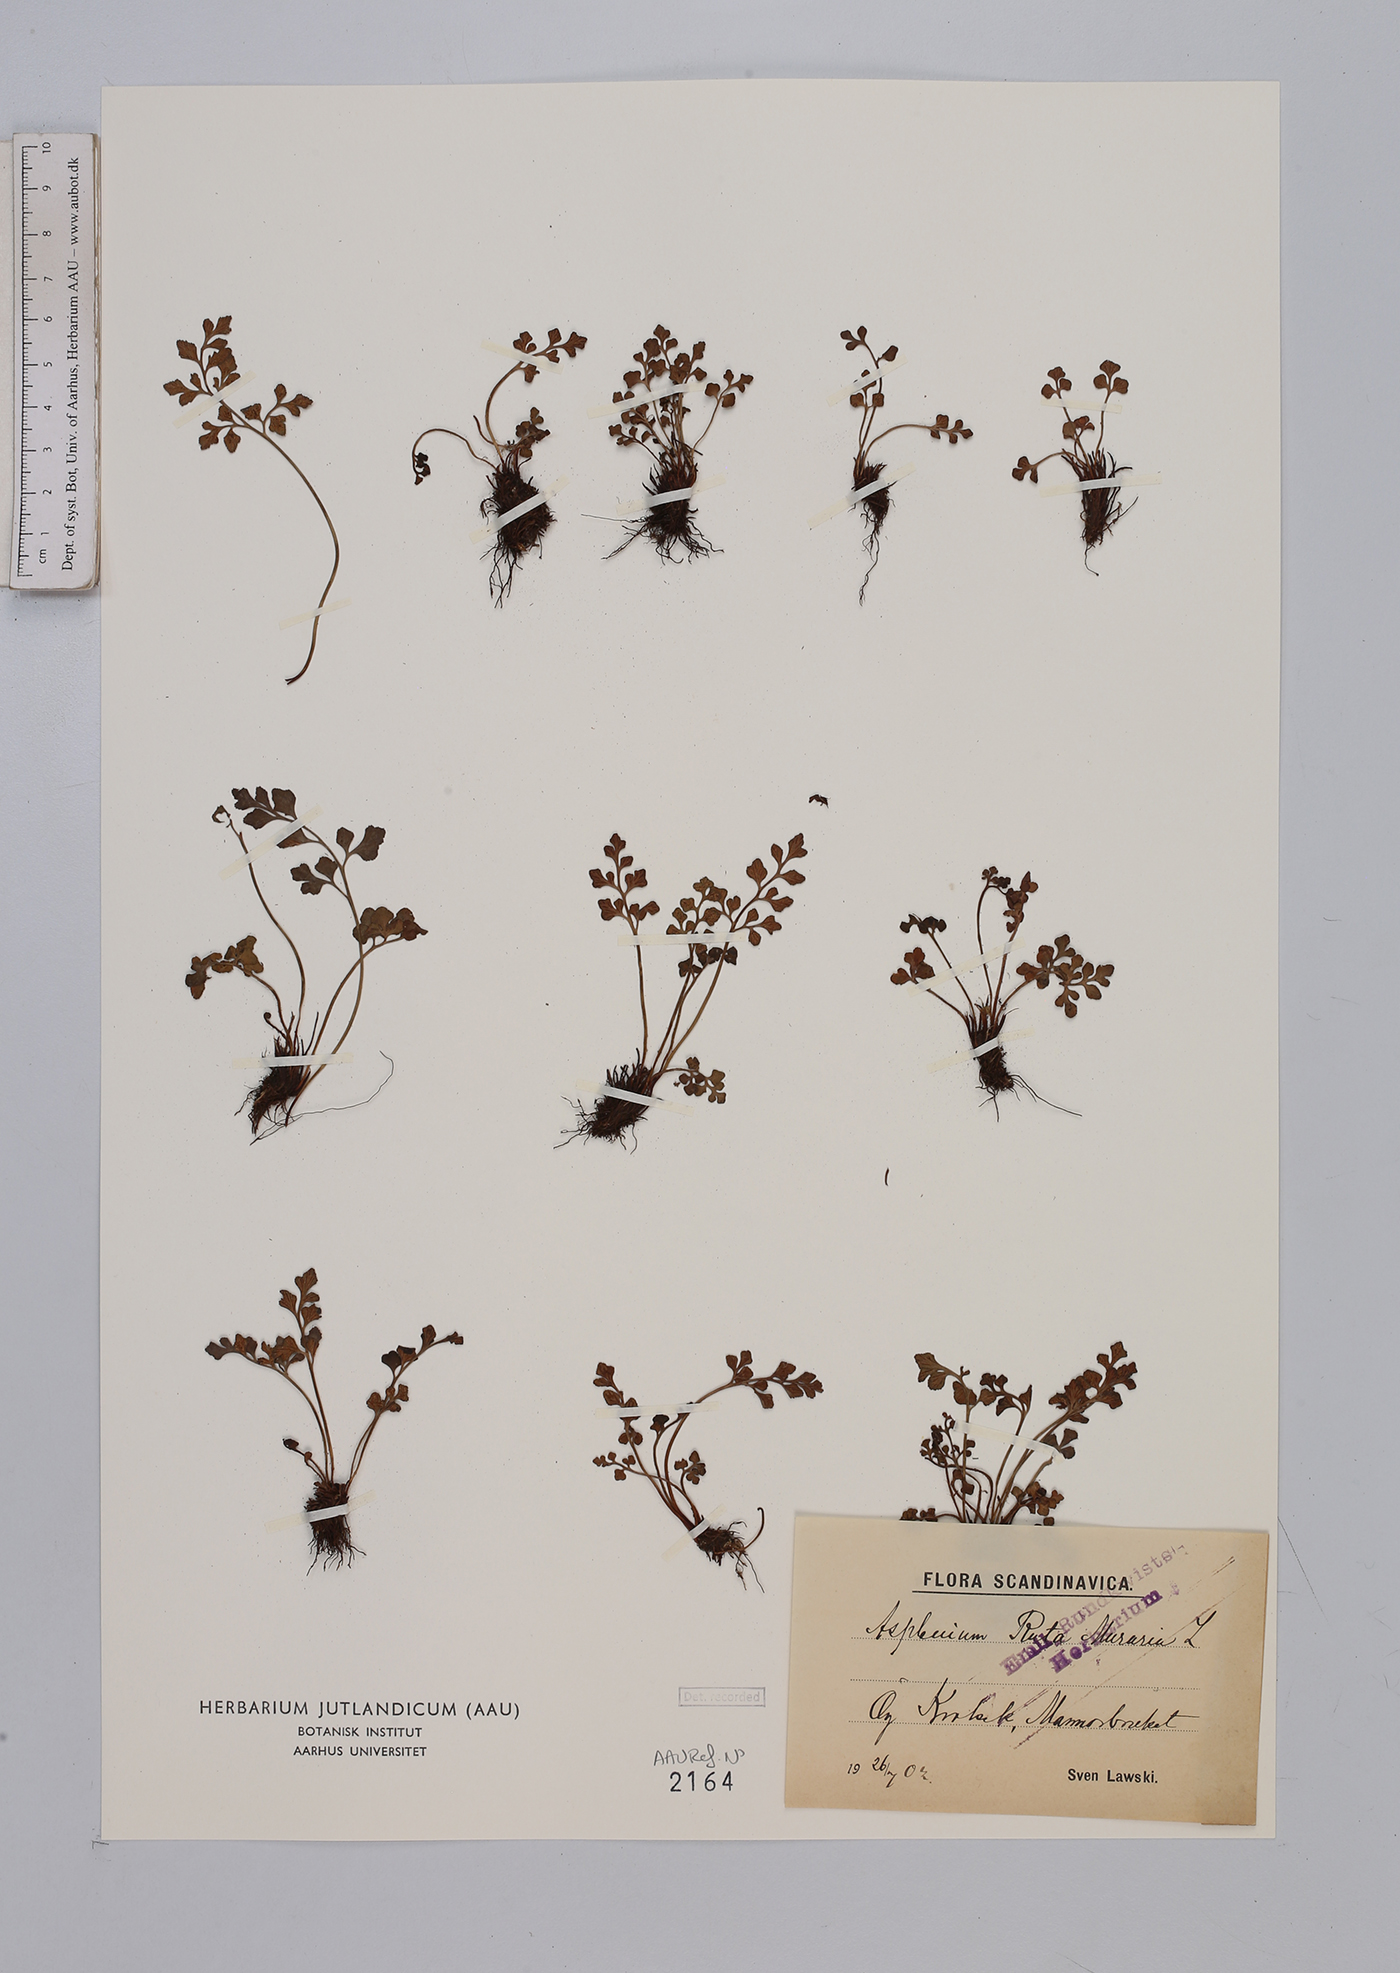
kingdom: Plantae
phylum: Tracheophyta
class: Polypodiopsida
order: Polypodiales
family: Aspleniaceae
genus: Asplenium
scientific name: Asplenium ruta-muraria
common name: Wall-rue
